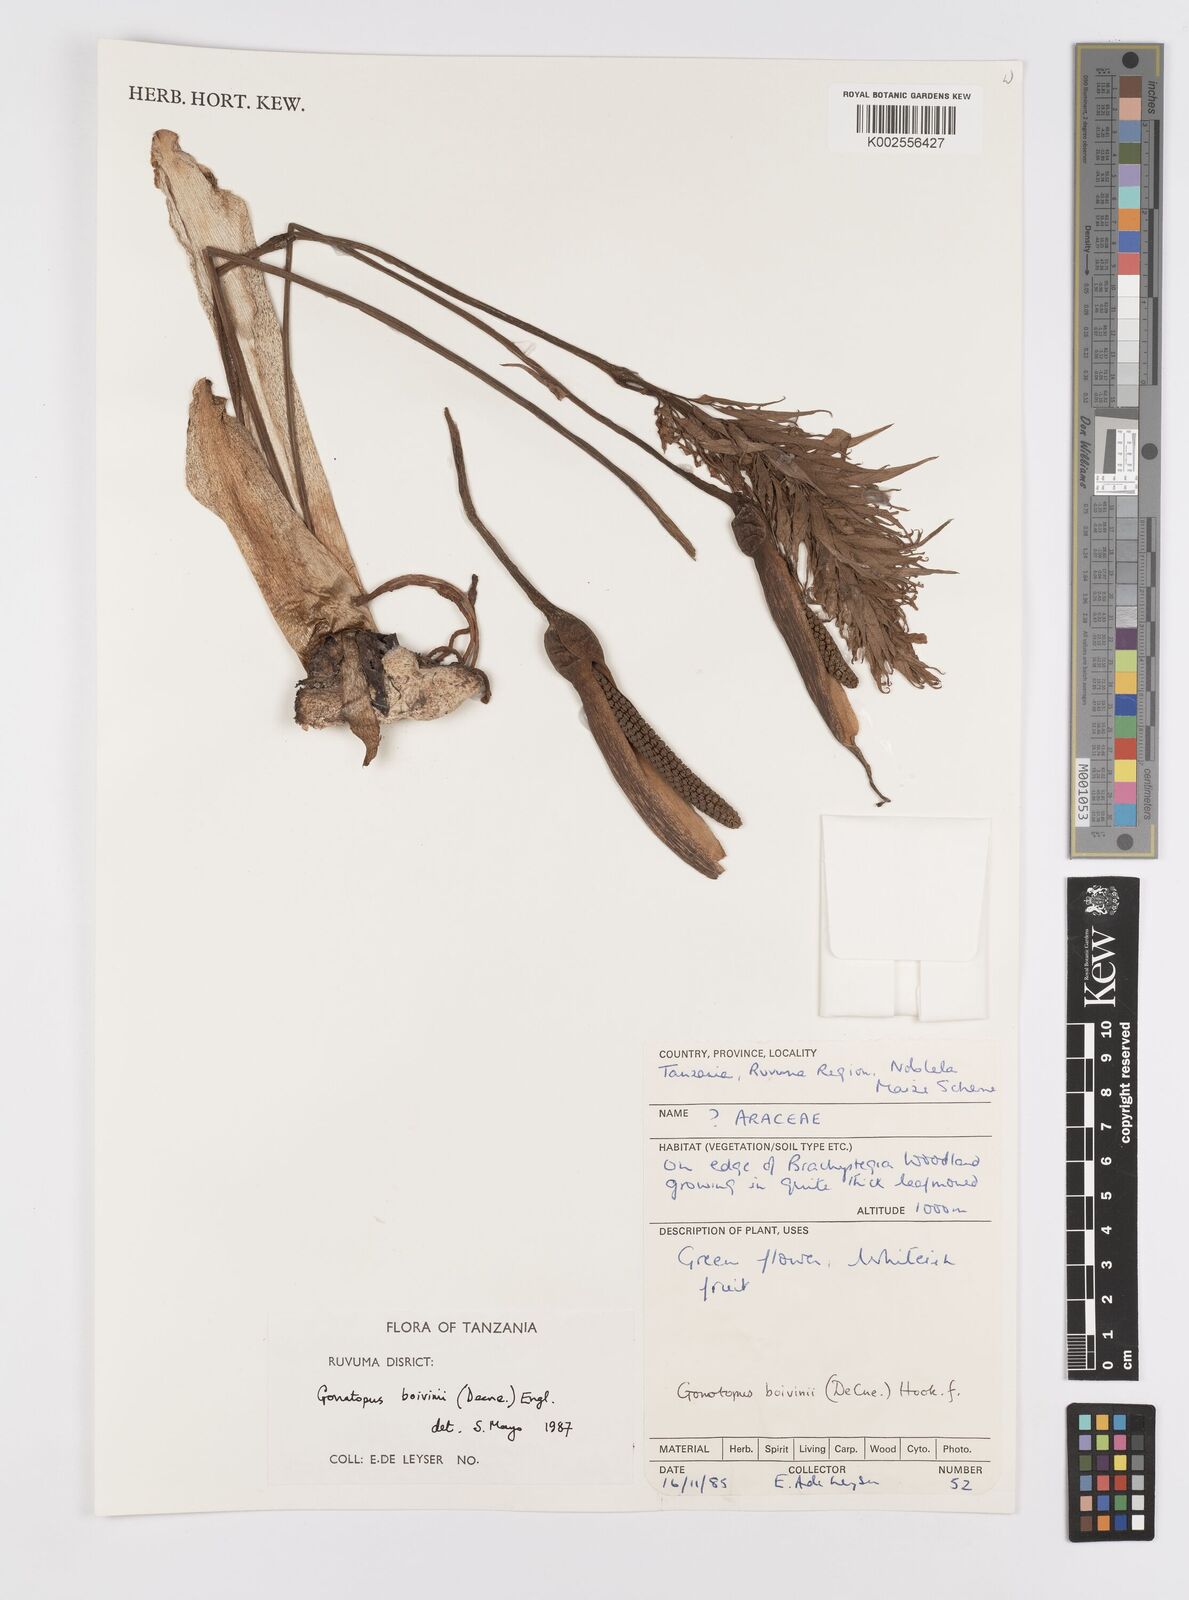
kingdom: Plantae
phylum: Tracheophyta
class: Liliopsida
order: Alismatales
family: Araceae
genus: Gonatopus
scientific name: Gonatopus boivinii
